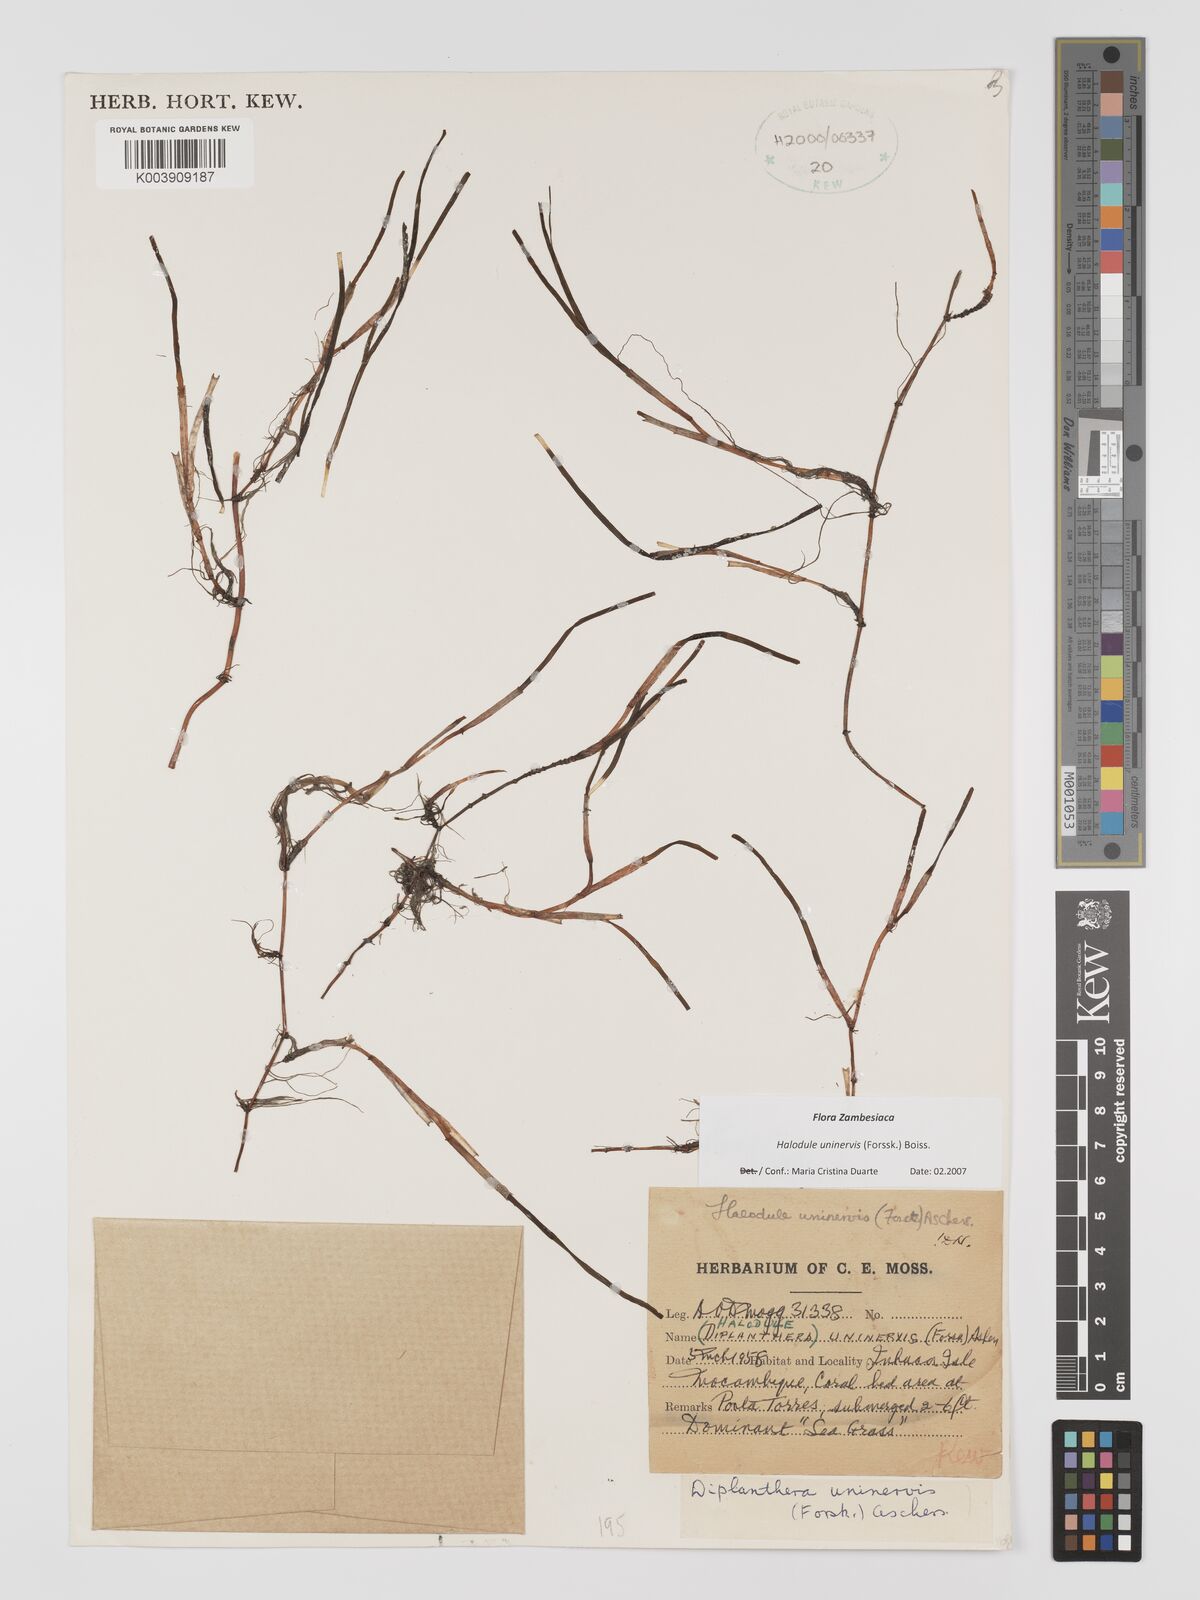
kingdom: Plantae
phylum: Tracheophyta
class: Liliopsida
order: Alismatales
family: Cymodoceaceae
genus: Halodule
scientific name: Halodule uninervis
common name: Narrowleaf seagrass
